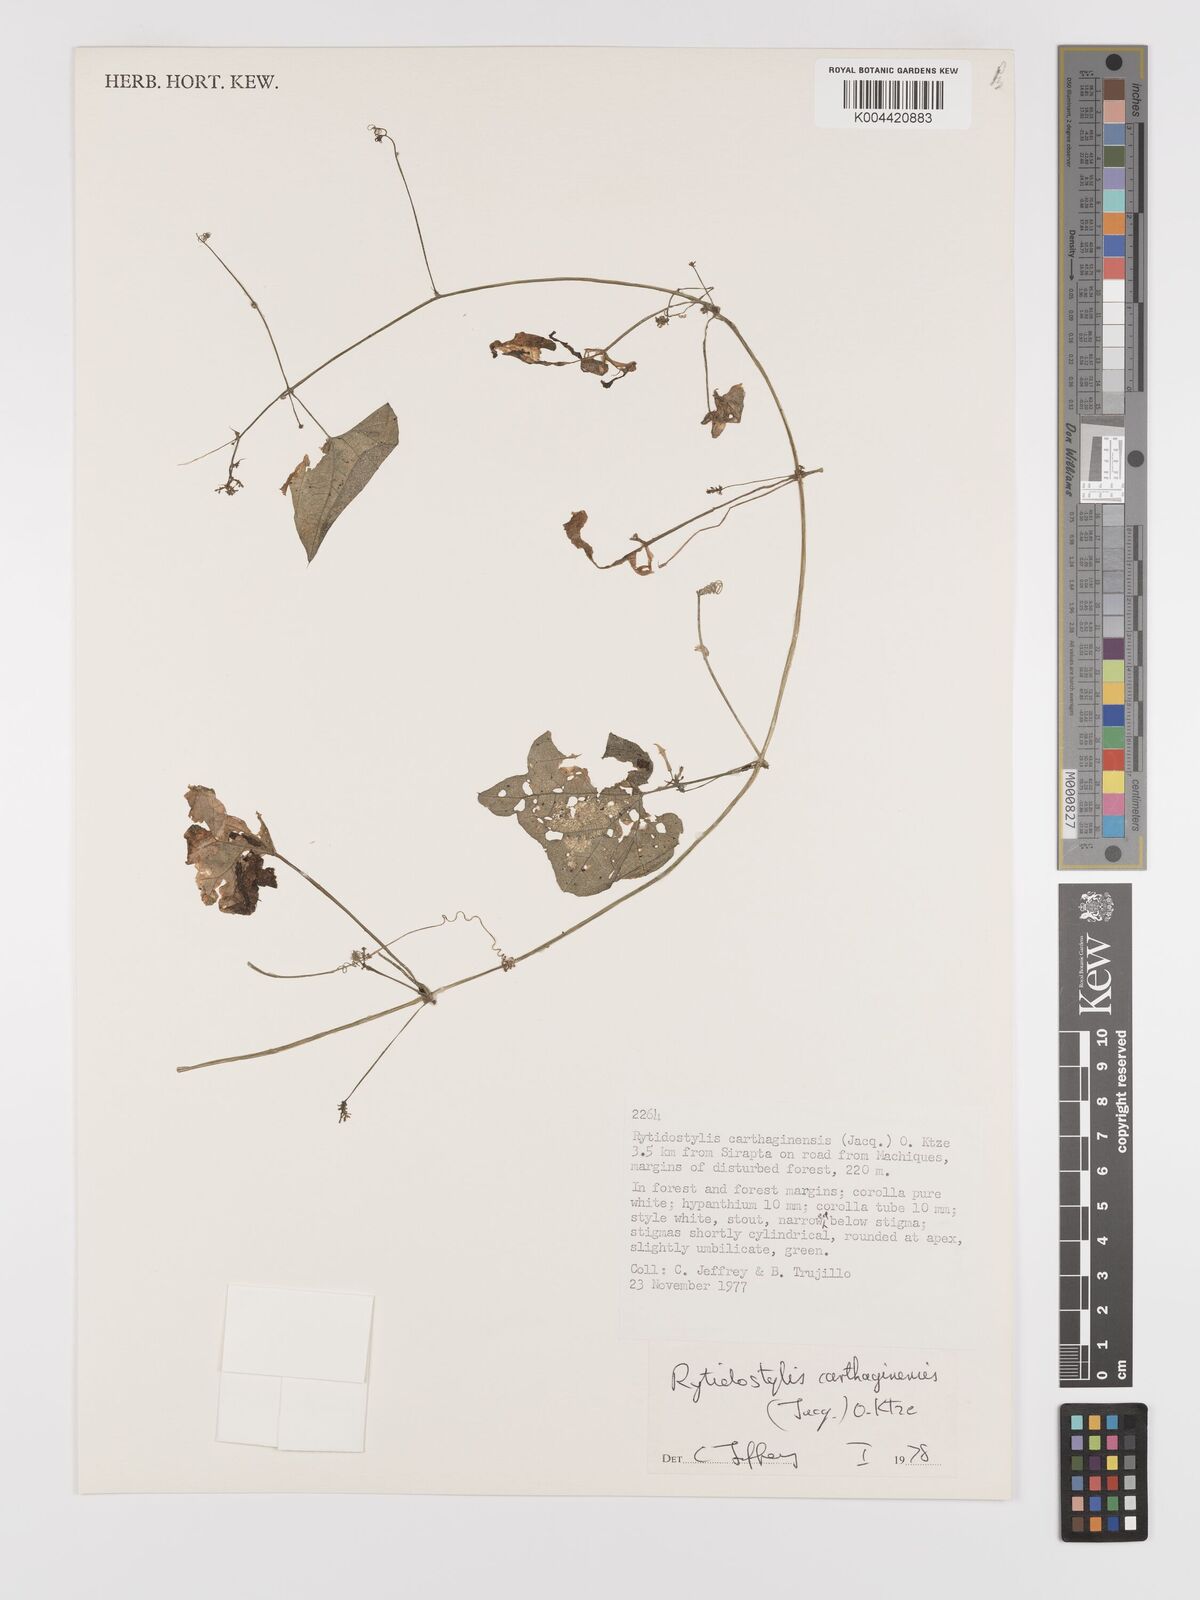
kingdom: Plantae
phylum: Tracheophyta
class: Magnoliopsida
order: Cucurbitales
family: Cucurbitaceae
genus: Cyclanthera
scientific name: Cyclanthera carthagenensis
